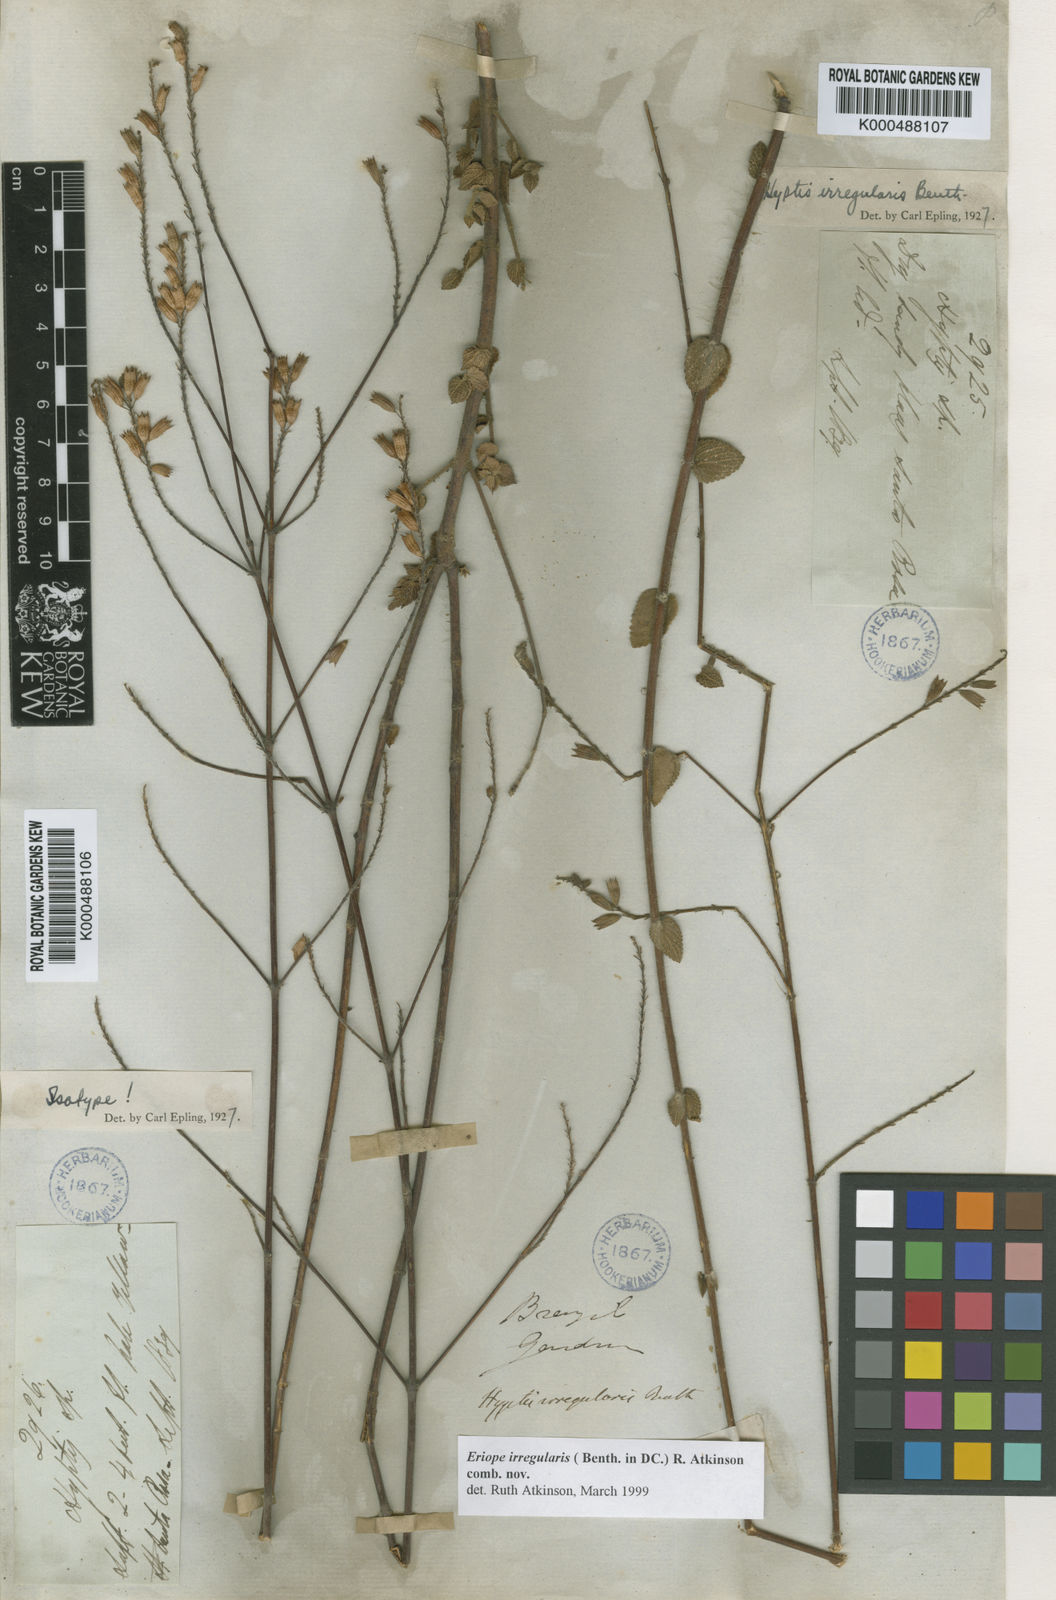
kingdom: Plantae
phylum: Tracheophyta
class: Magnoliopsida
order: Lamiales
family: Lamiaceae
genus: Hypenia
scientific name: Hypenia irregularis
